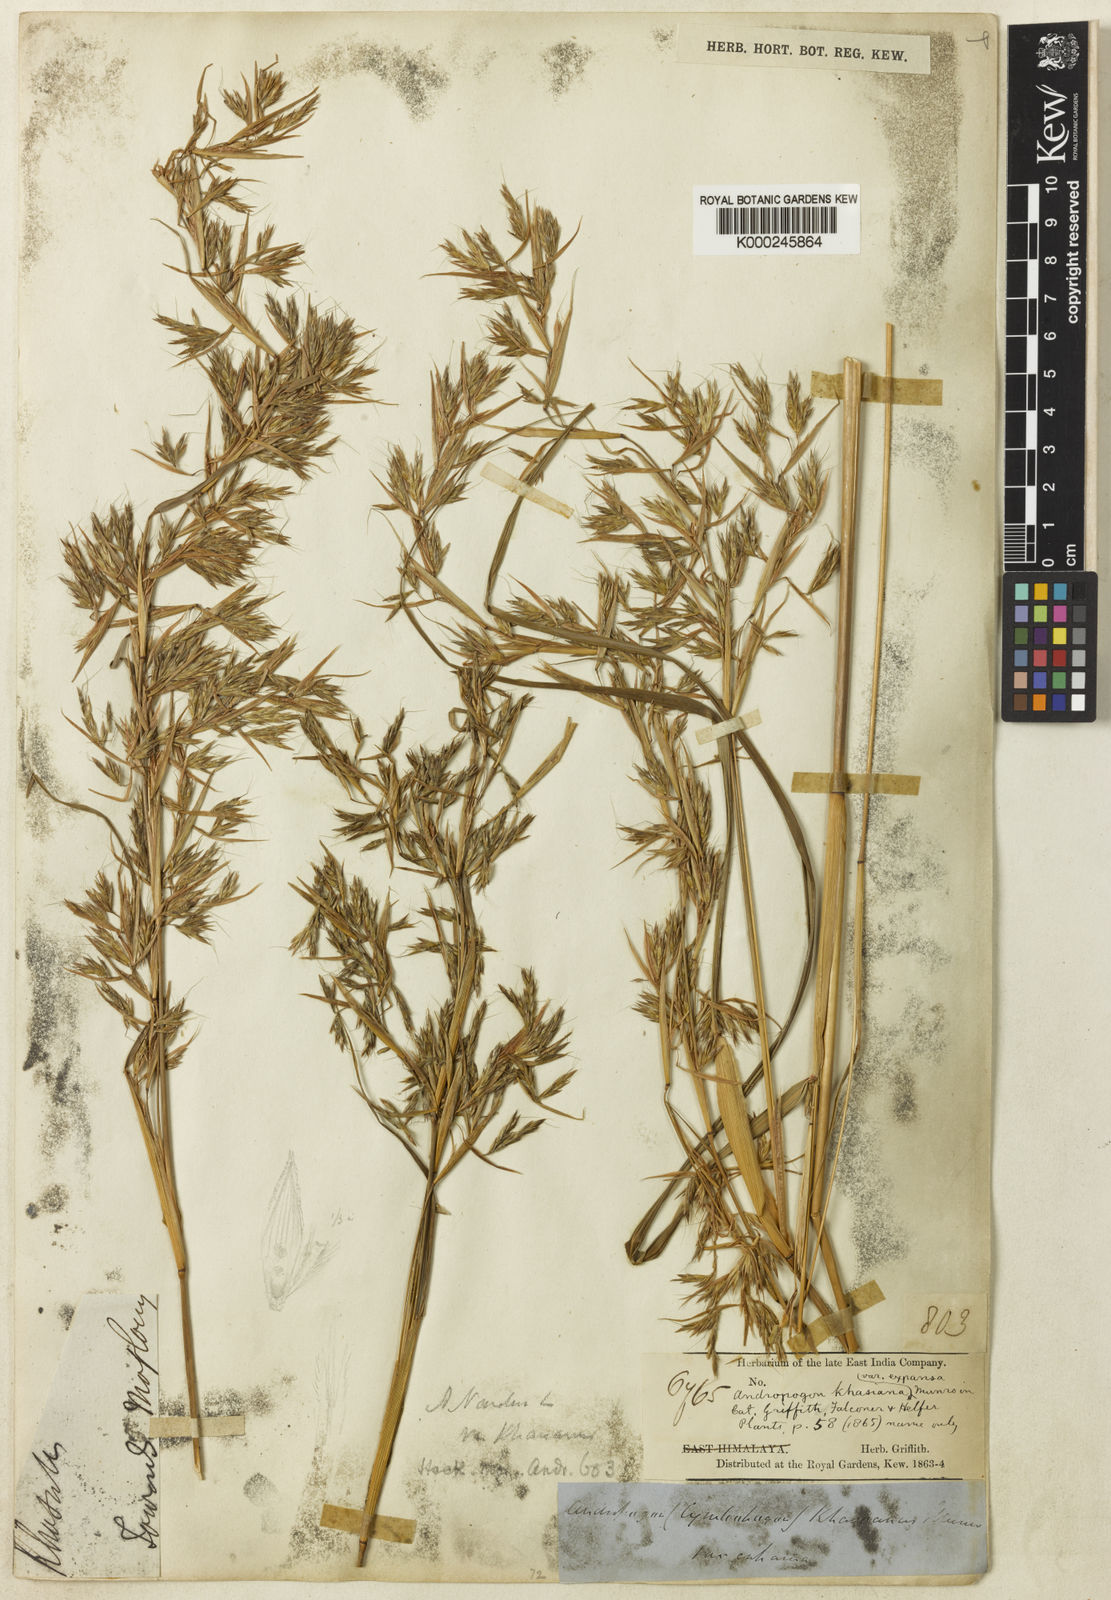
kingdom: Plantae
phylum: Tracheophyta
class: Liliopsida
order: Poales
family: Poaceae
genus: Cymbopogon
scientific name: Cymbopogon khasianus
